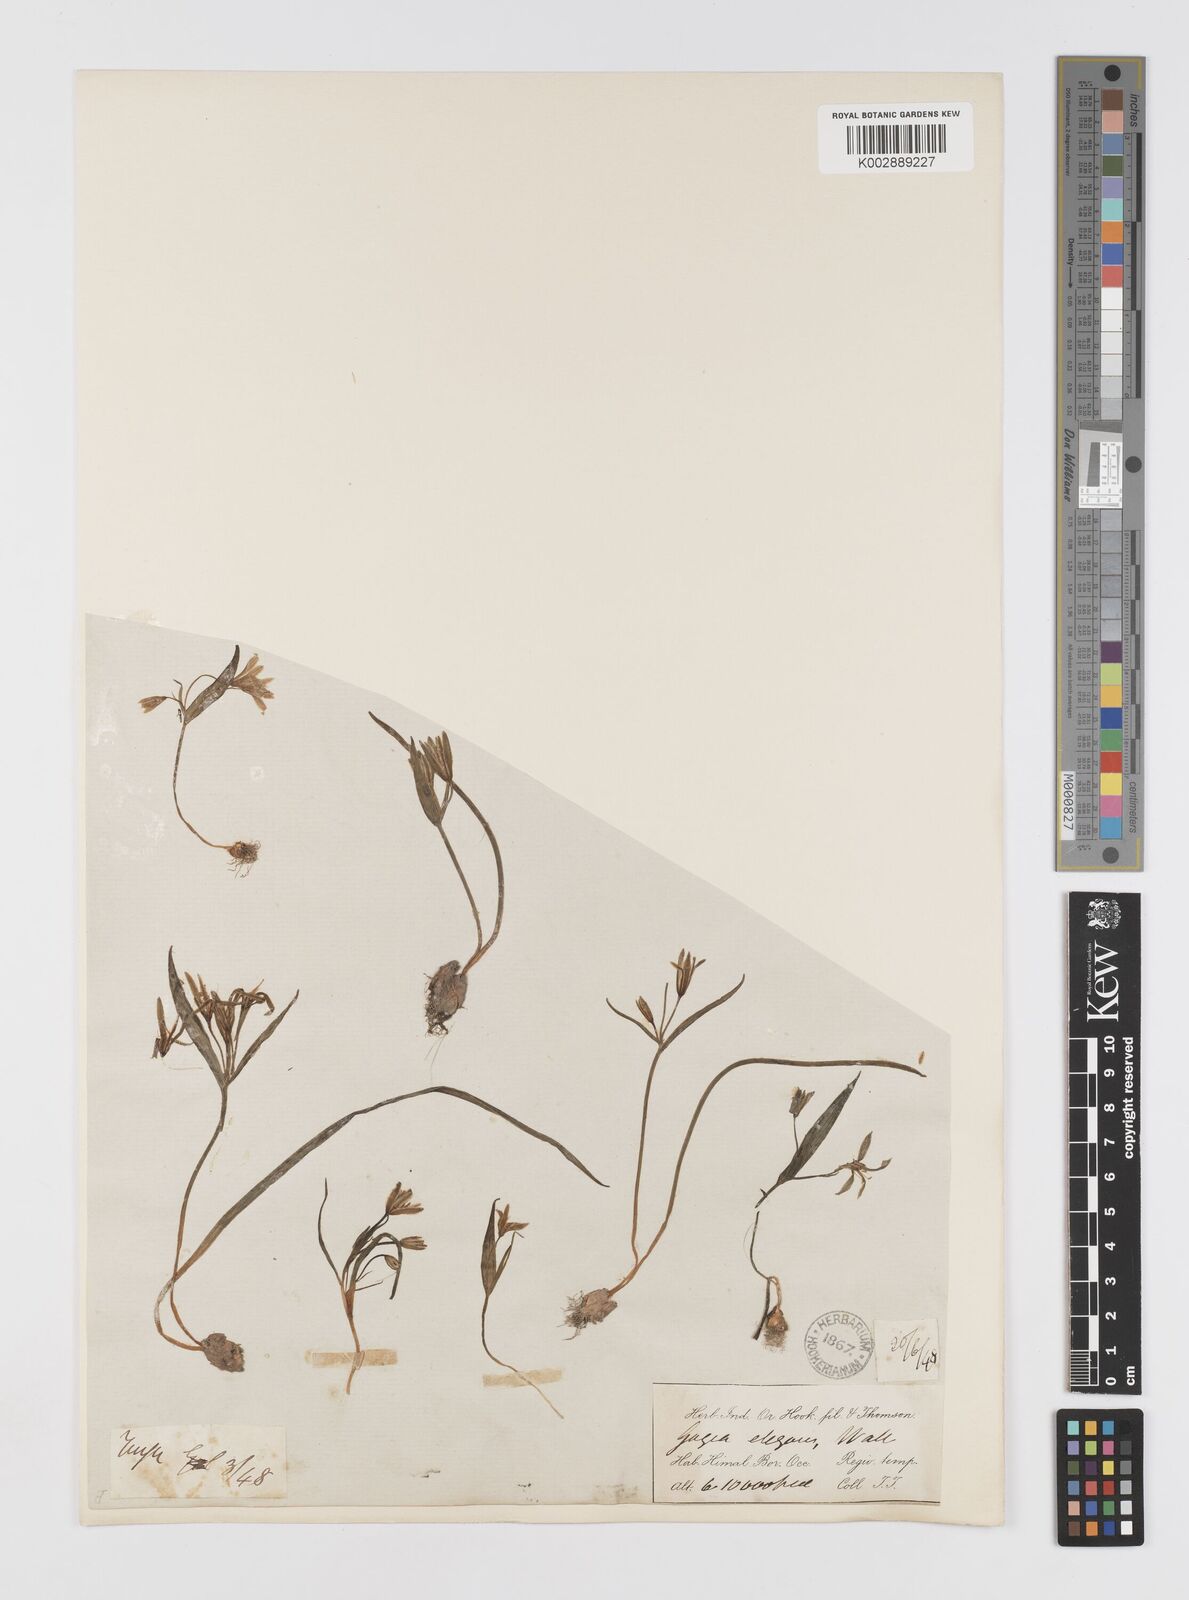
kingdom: Plantae
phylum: Tracheophyta
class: Liliopsida
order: Liliales
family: Liliaceae
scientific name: Liliaceae
